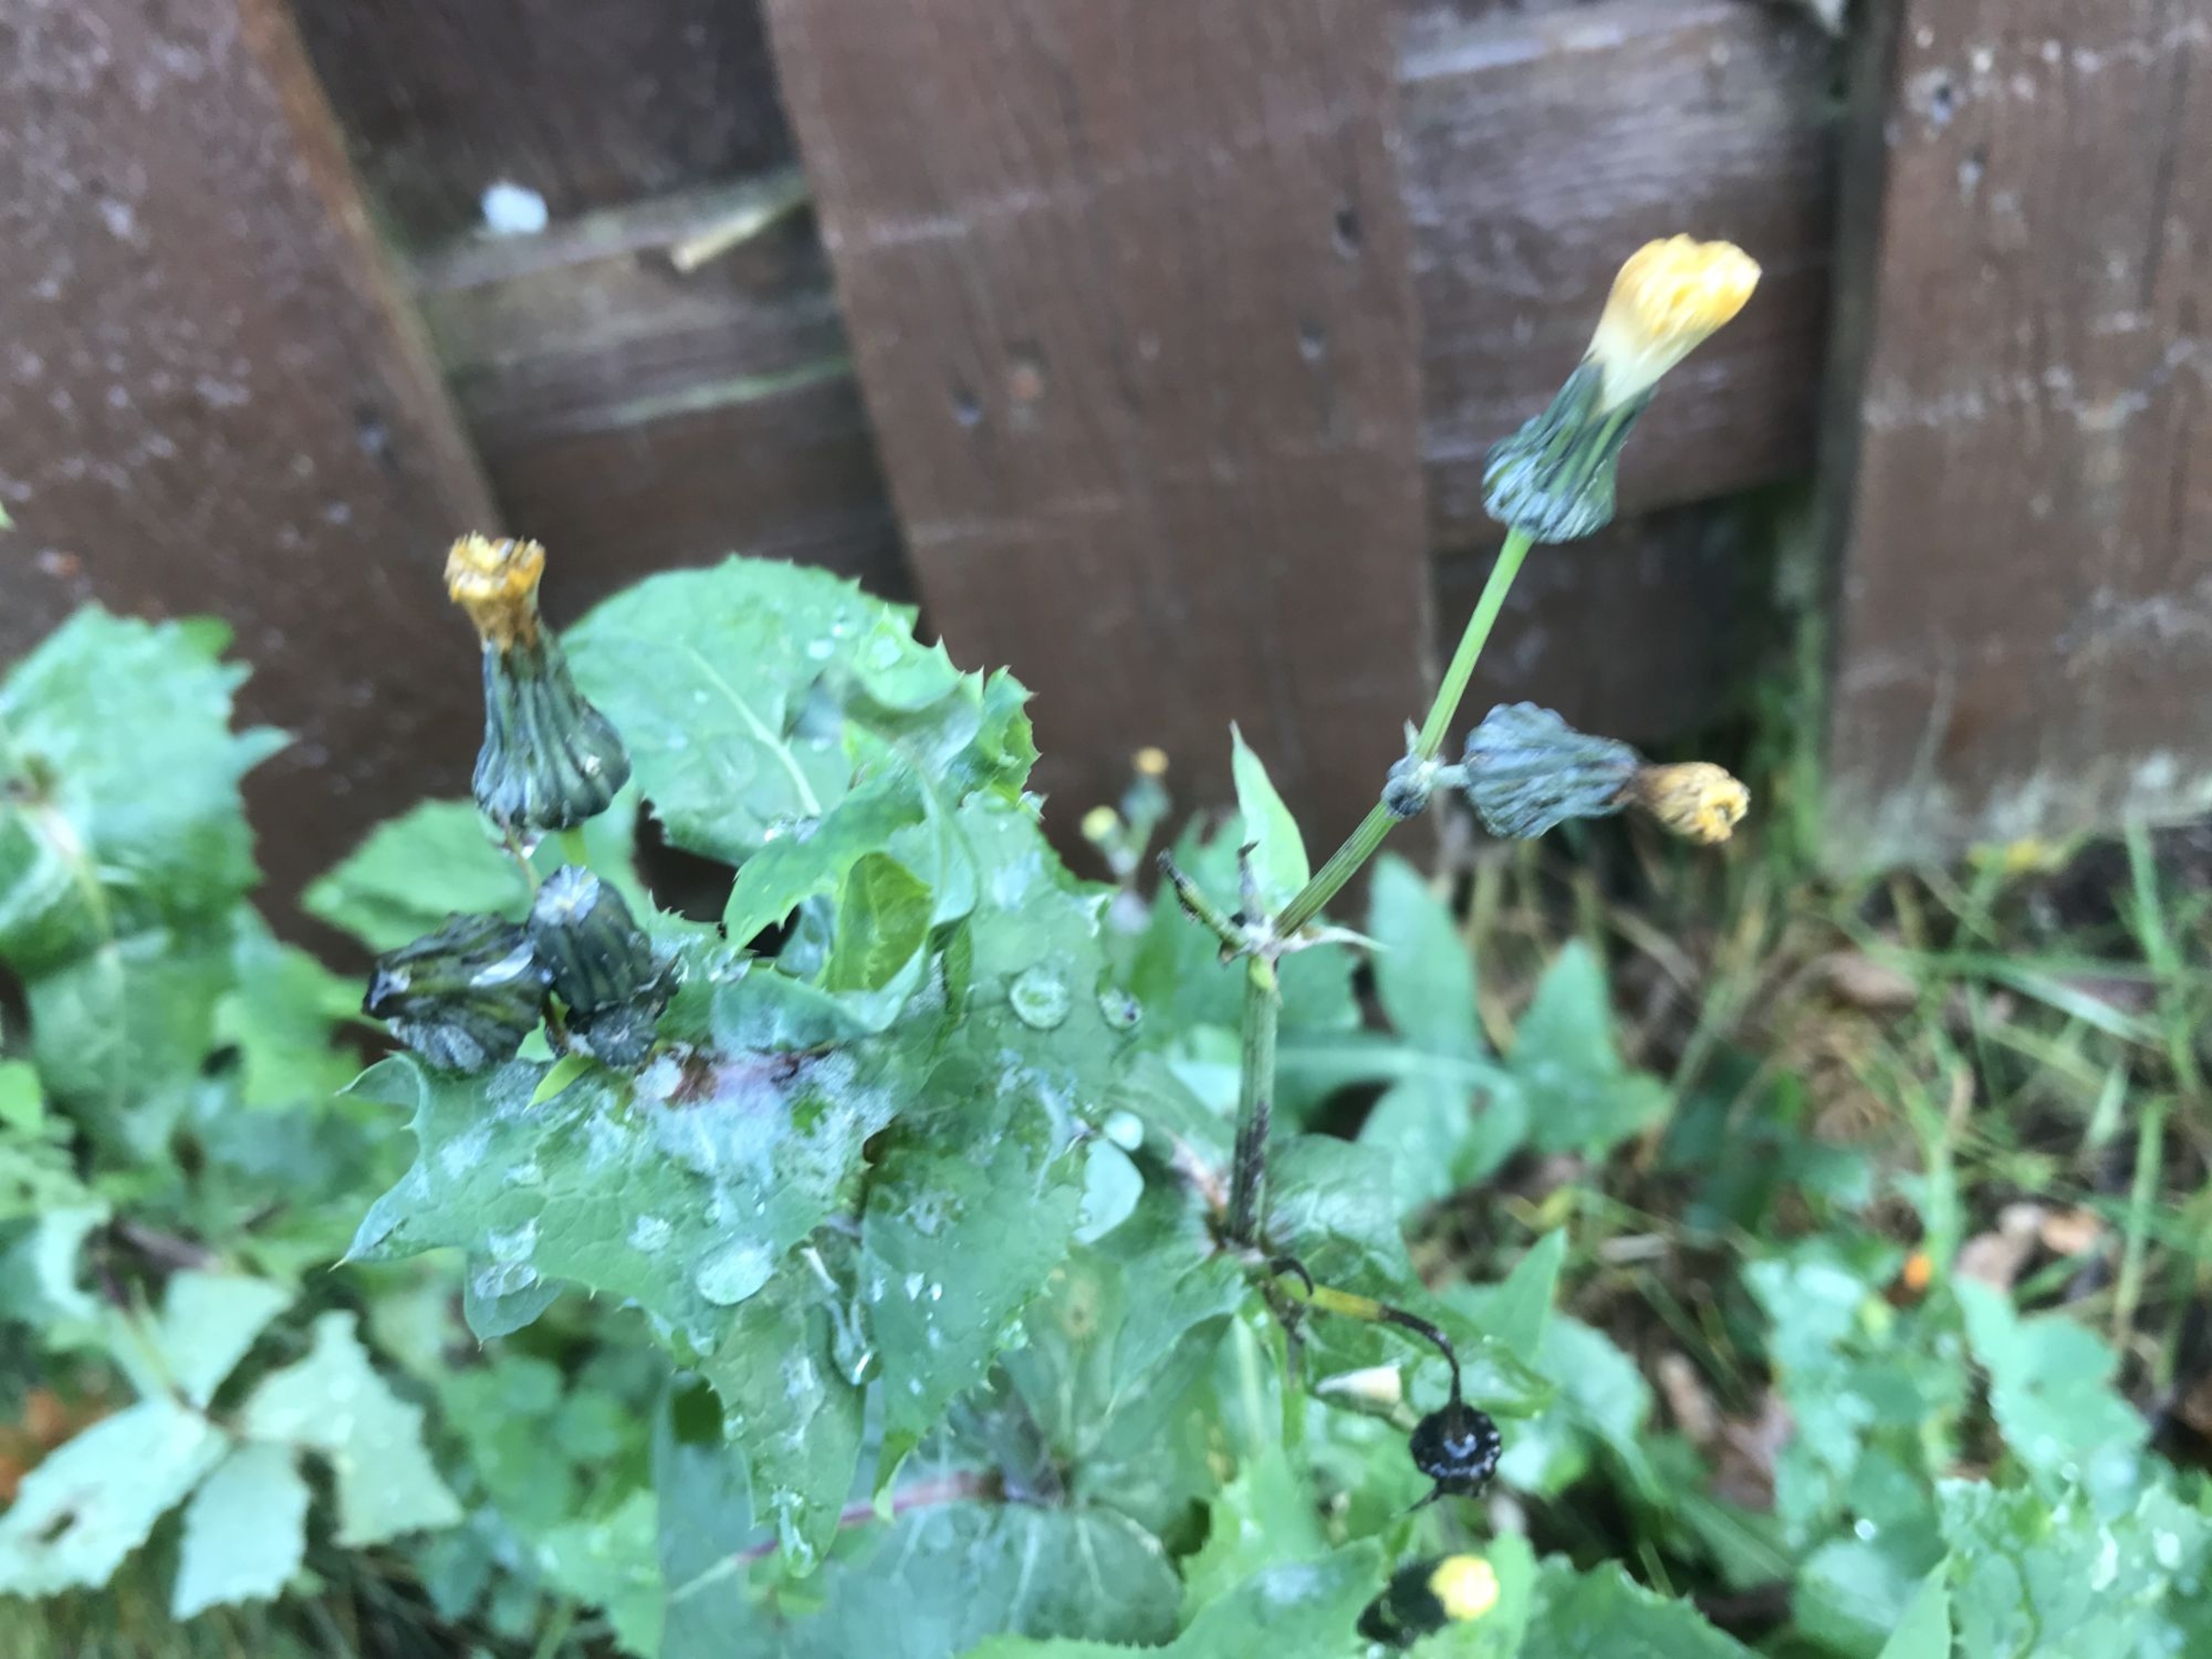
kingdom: Plantae
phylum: Tracheophyta
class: Magnoliopsida
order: Asterales
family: Asteraceae
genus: Sonchus
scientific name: Sonchus oleraceus
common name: Almindelig svinemælk
